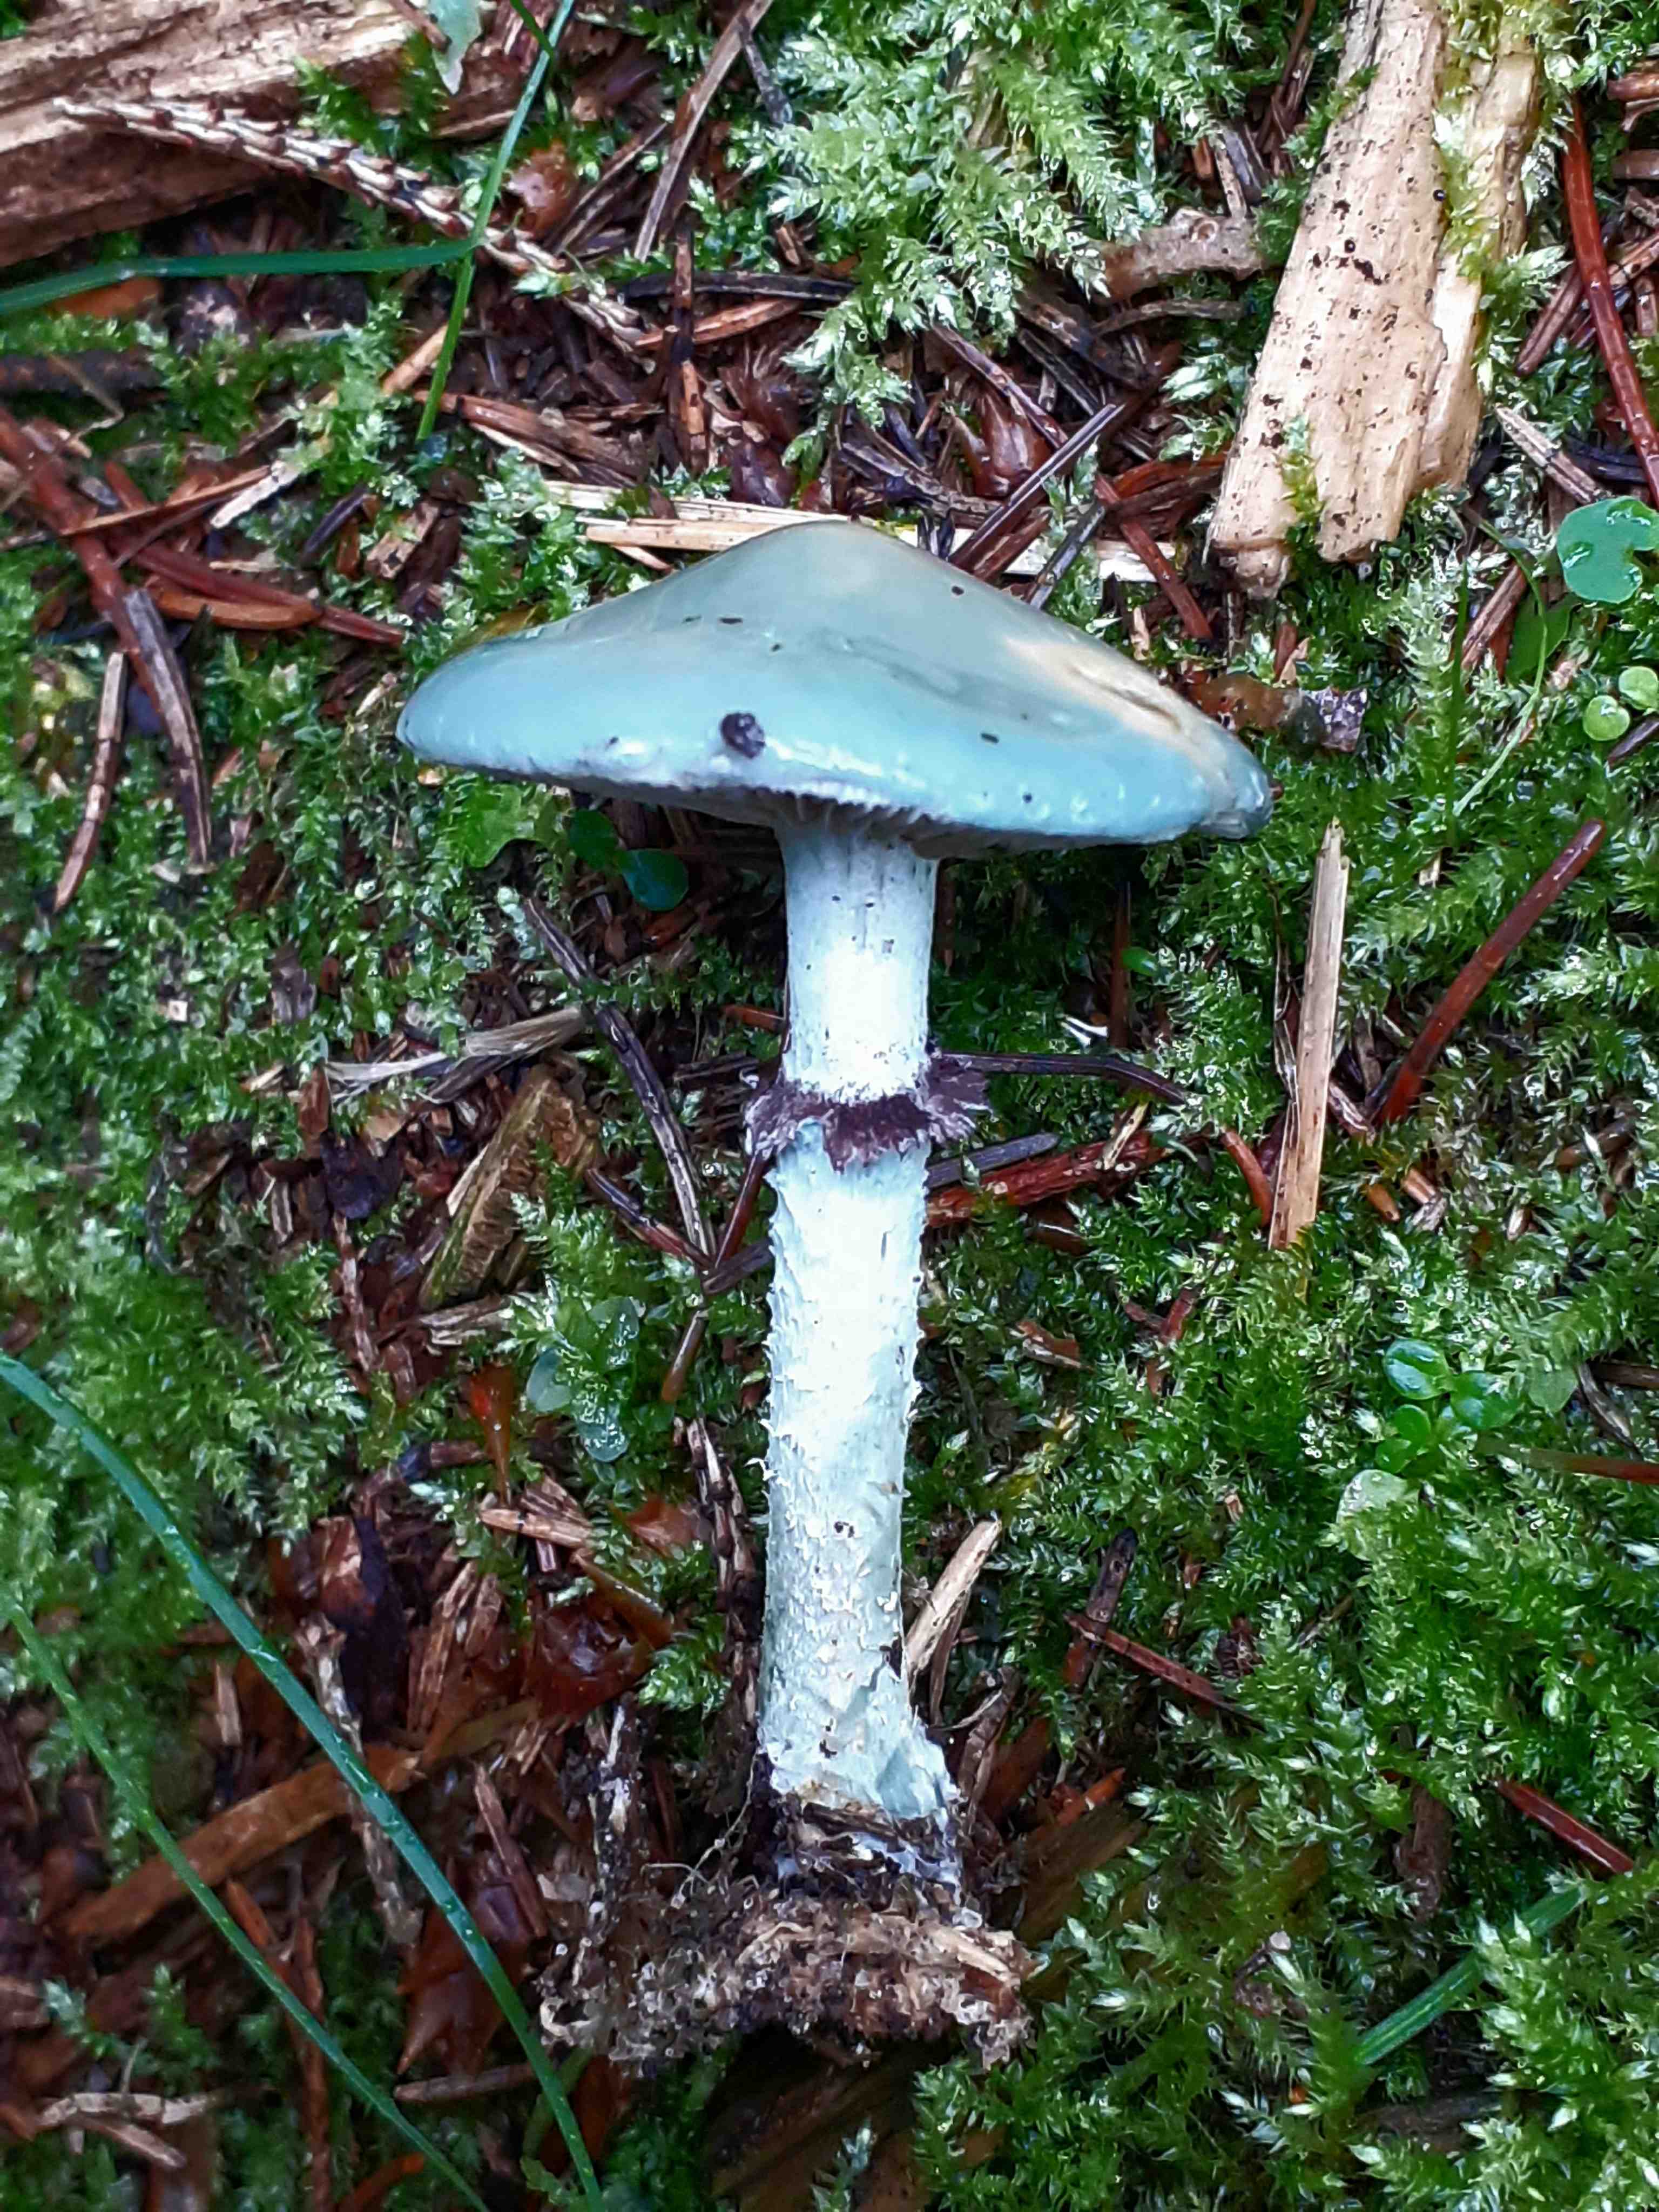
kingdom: Fungi
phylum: Basidiomycota
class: Agaricomycetes
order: Agaricales
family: Strophariaceae
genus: Stropharia
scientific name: Stropharia cyanea
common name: blågrøn bredblad
